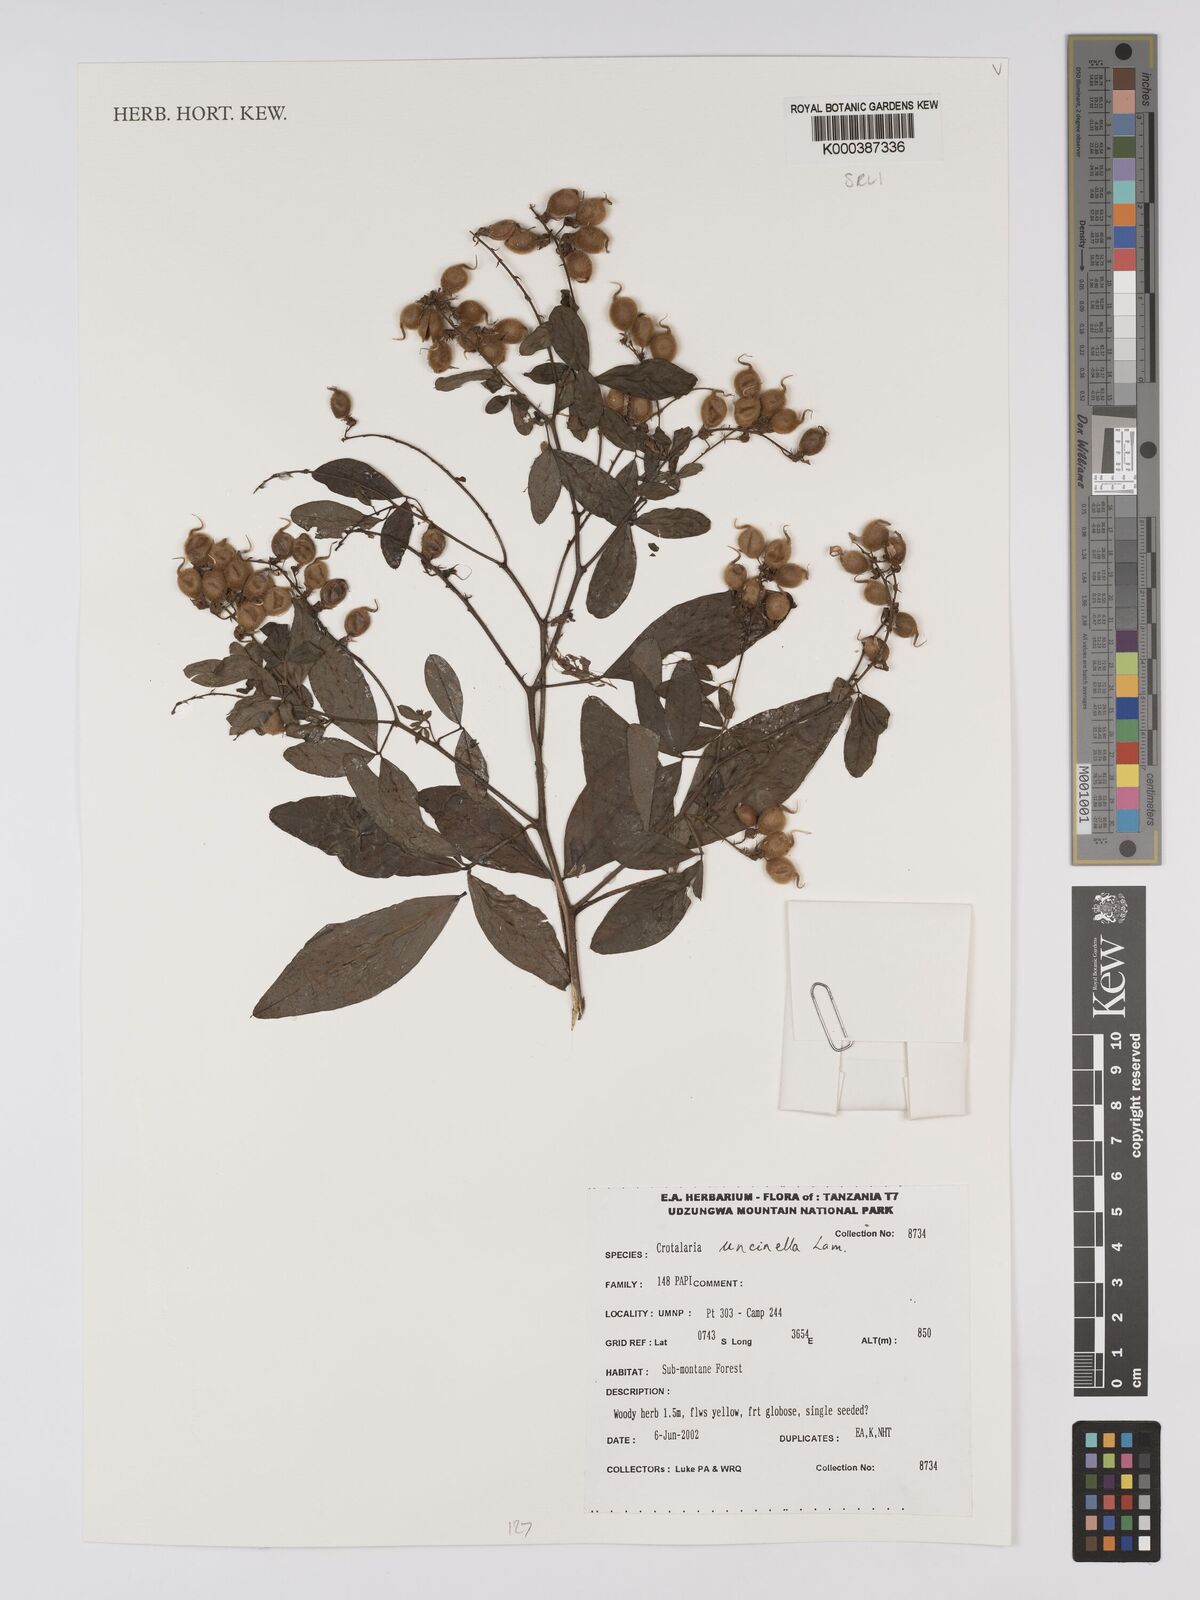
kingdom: Plantae
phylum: Tracheophyta
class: Magnoliopsida
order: Fabales
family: Fabaceae
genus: Crotalaria
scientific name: Crotalaria uncinella
